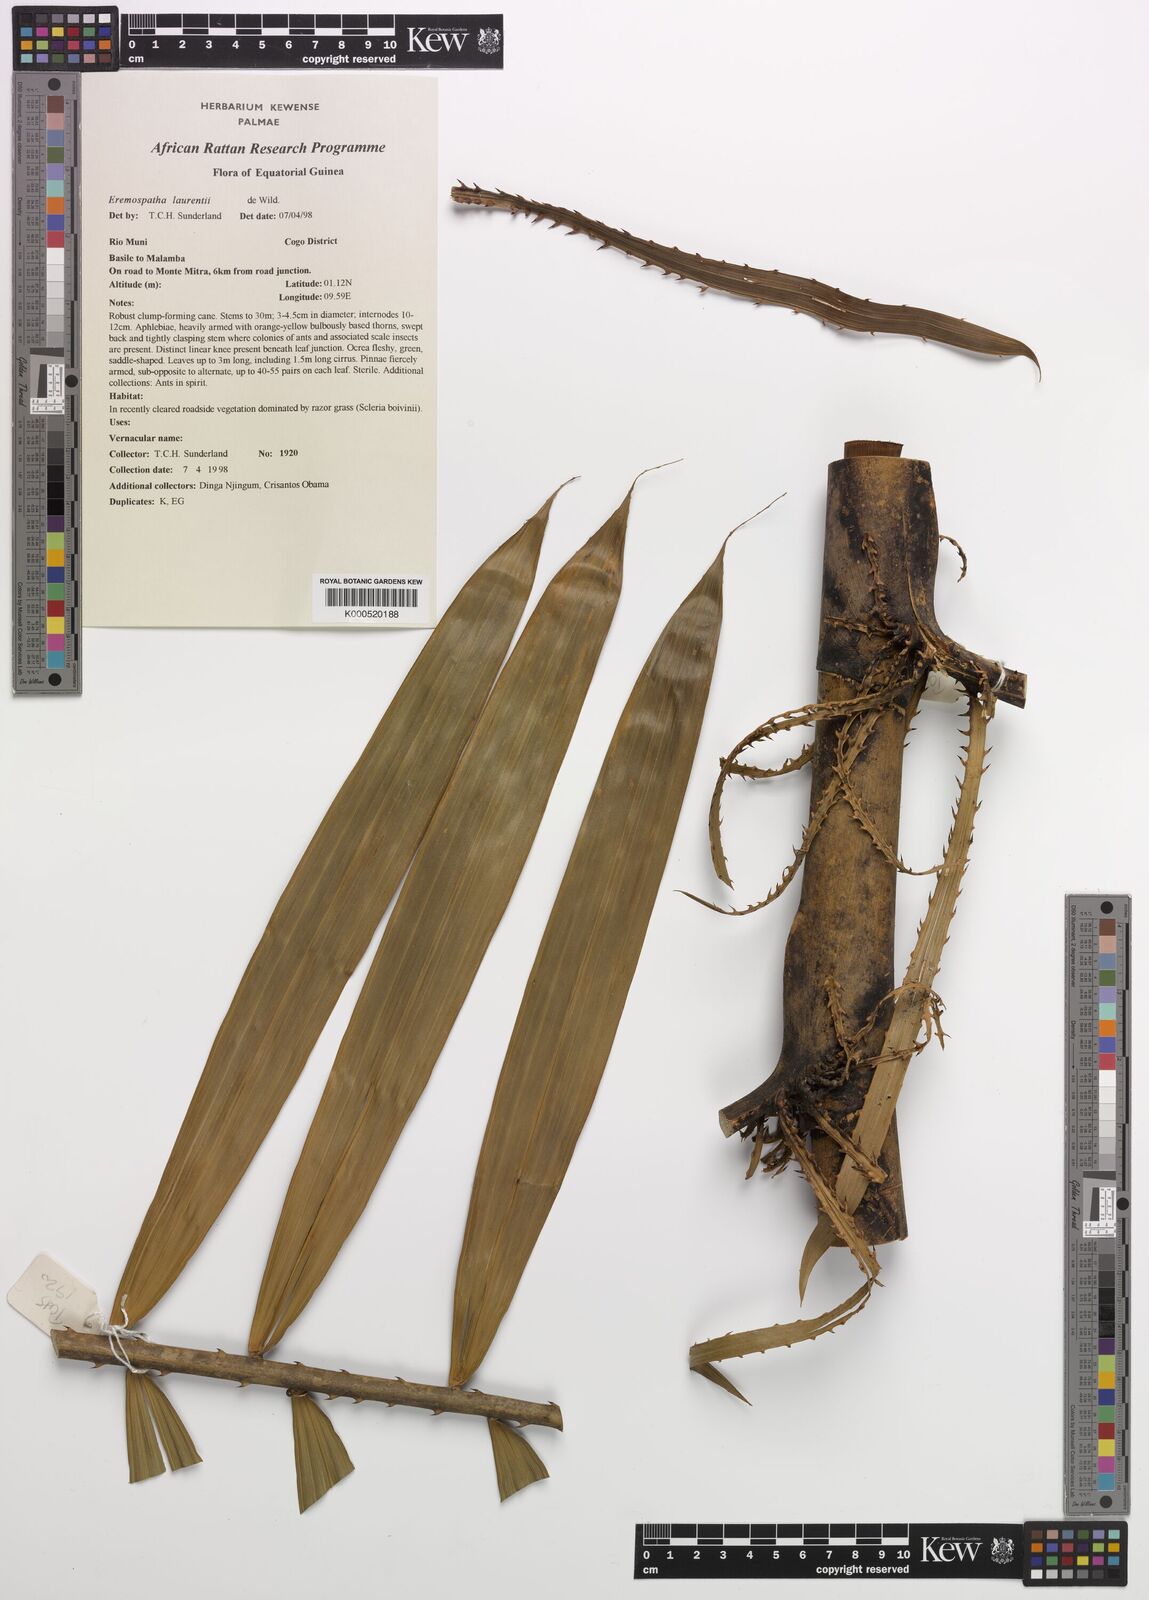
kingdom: Plantae
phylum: Tracheophyta
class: Liliopsida
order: Arecales
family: Arecaceae
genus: Eremospatha
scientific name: Eremospatha laurentii
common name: Rattan palm
